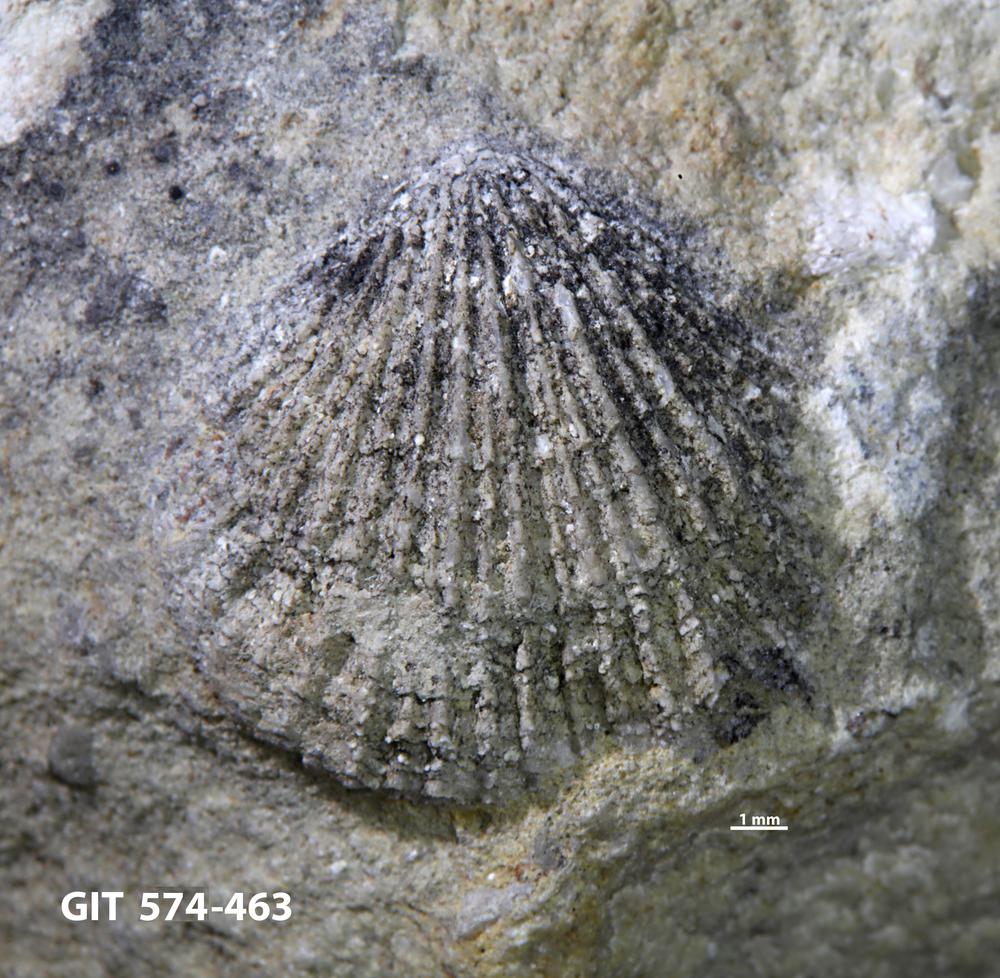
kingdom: Animalia
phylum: Brachiopoda
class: Rhynchonellata
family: Atrypinidae
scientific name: Atrypinidae
